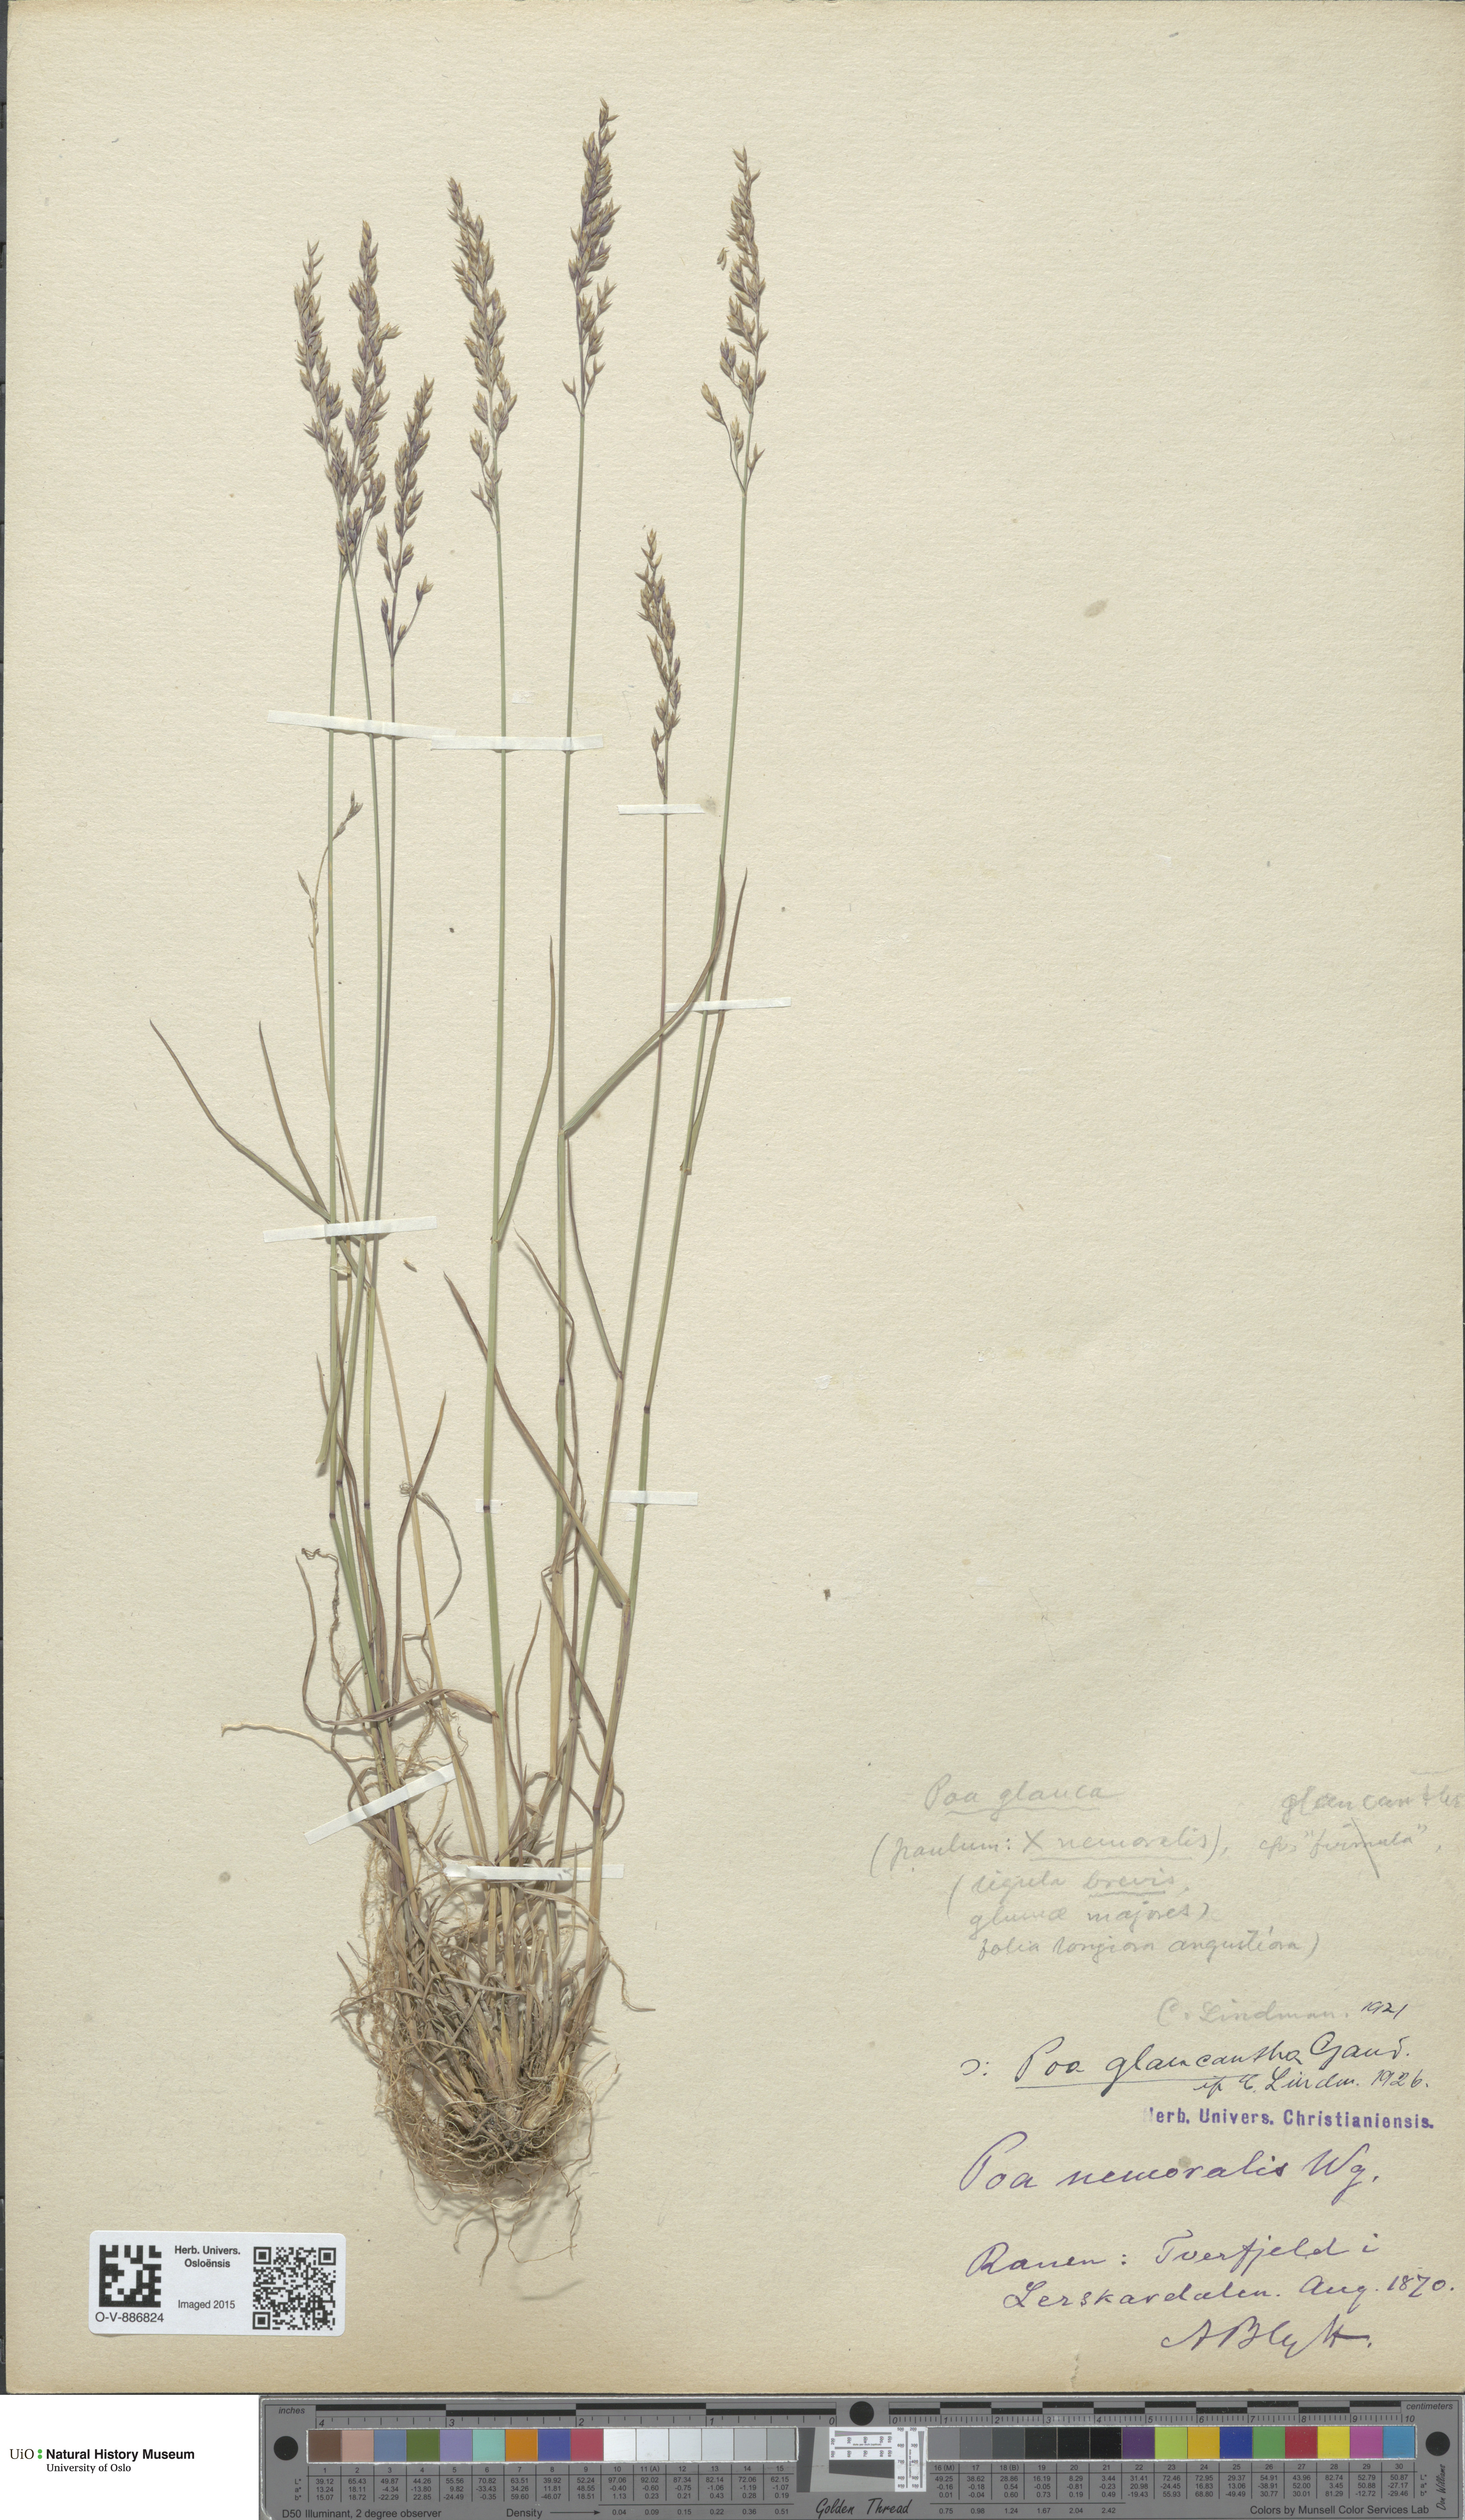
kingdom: Plantae
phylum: Tracheophyta
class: Liliopsida
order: Poales
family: Poaceae
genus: Poa
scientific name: Poa nemoralis
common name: Wood bluegrass
